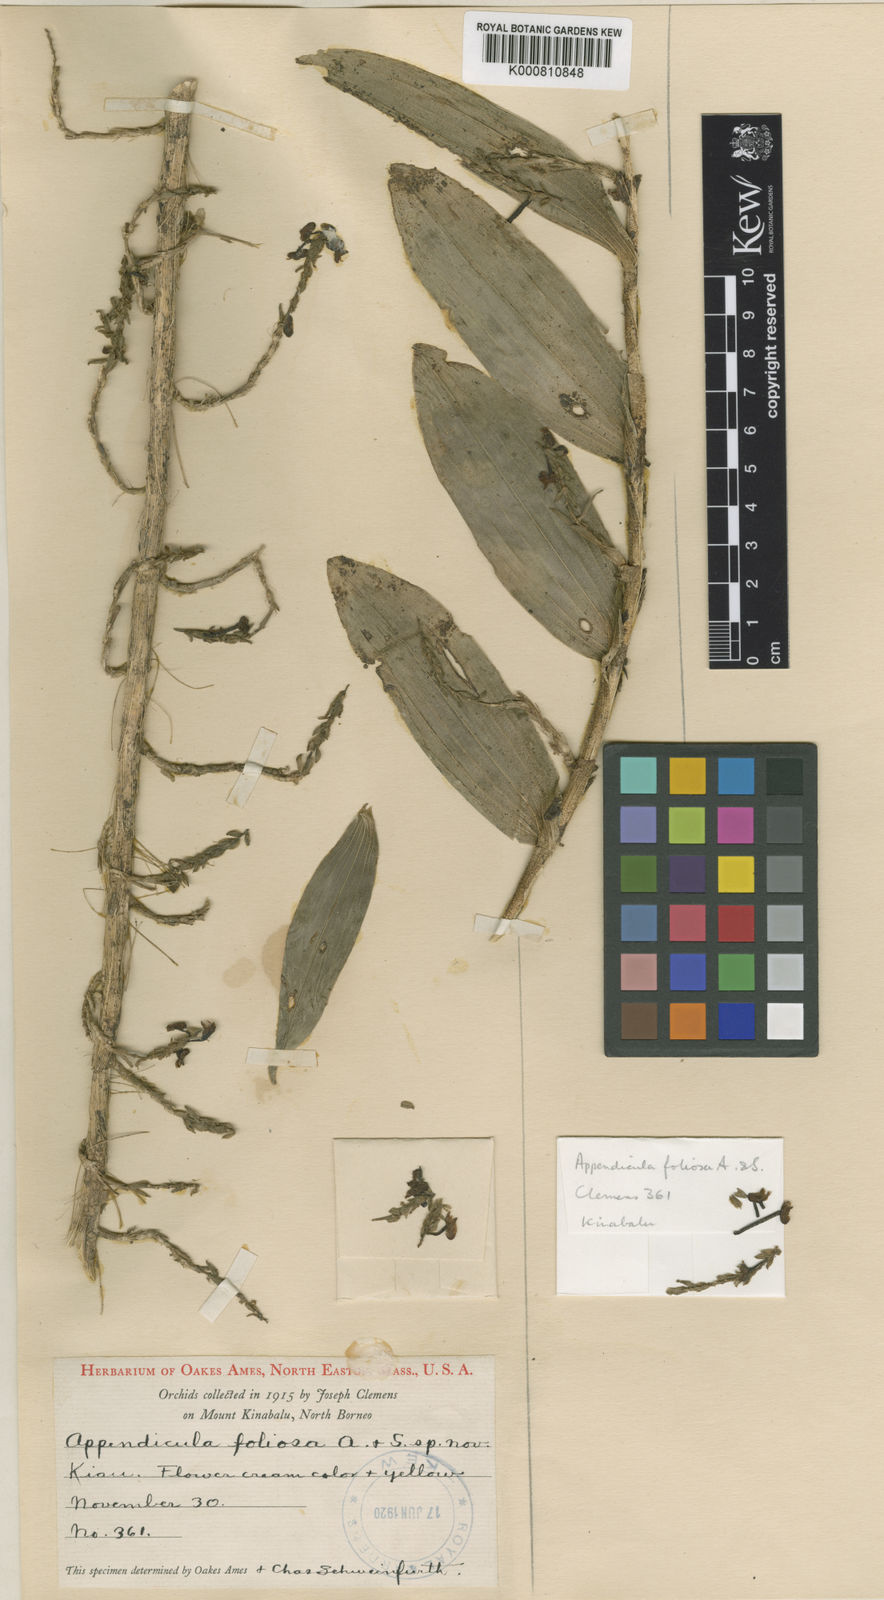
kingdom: Plantae
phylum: Tracheophyta
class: Liliopsida
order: Asparagales
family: Orchidaceae
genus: Appendicula
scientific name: Appendicula foliosa
